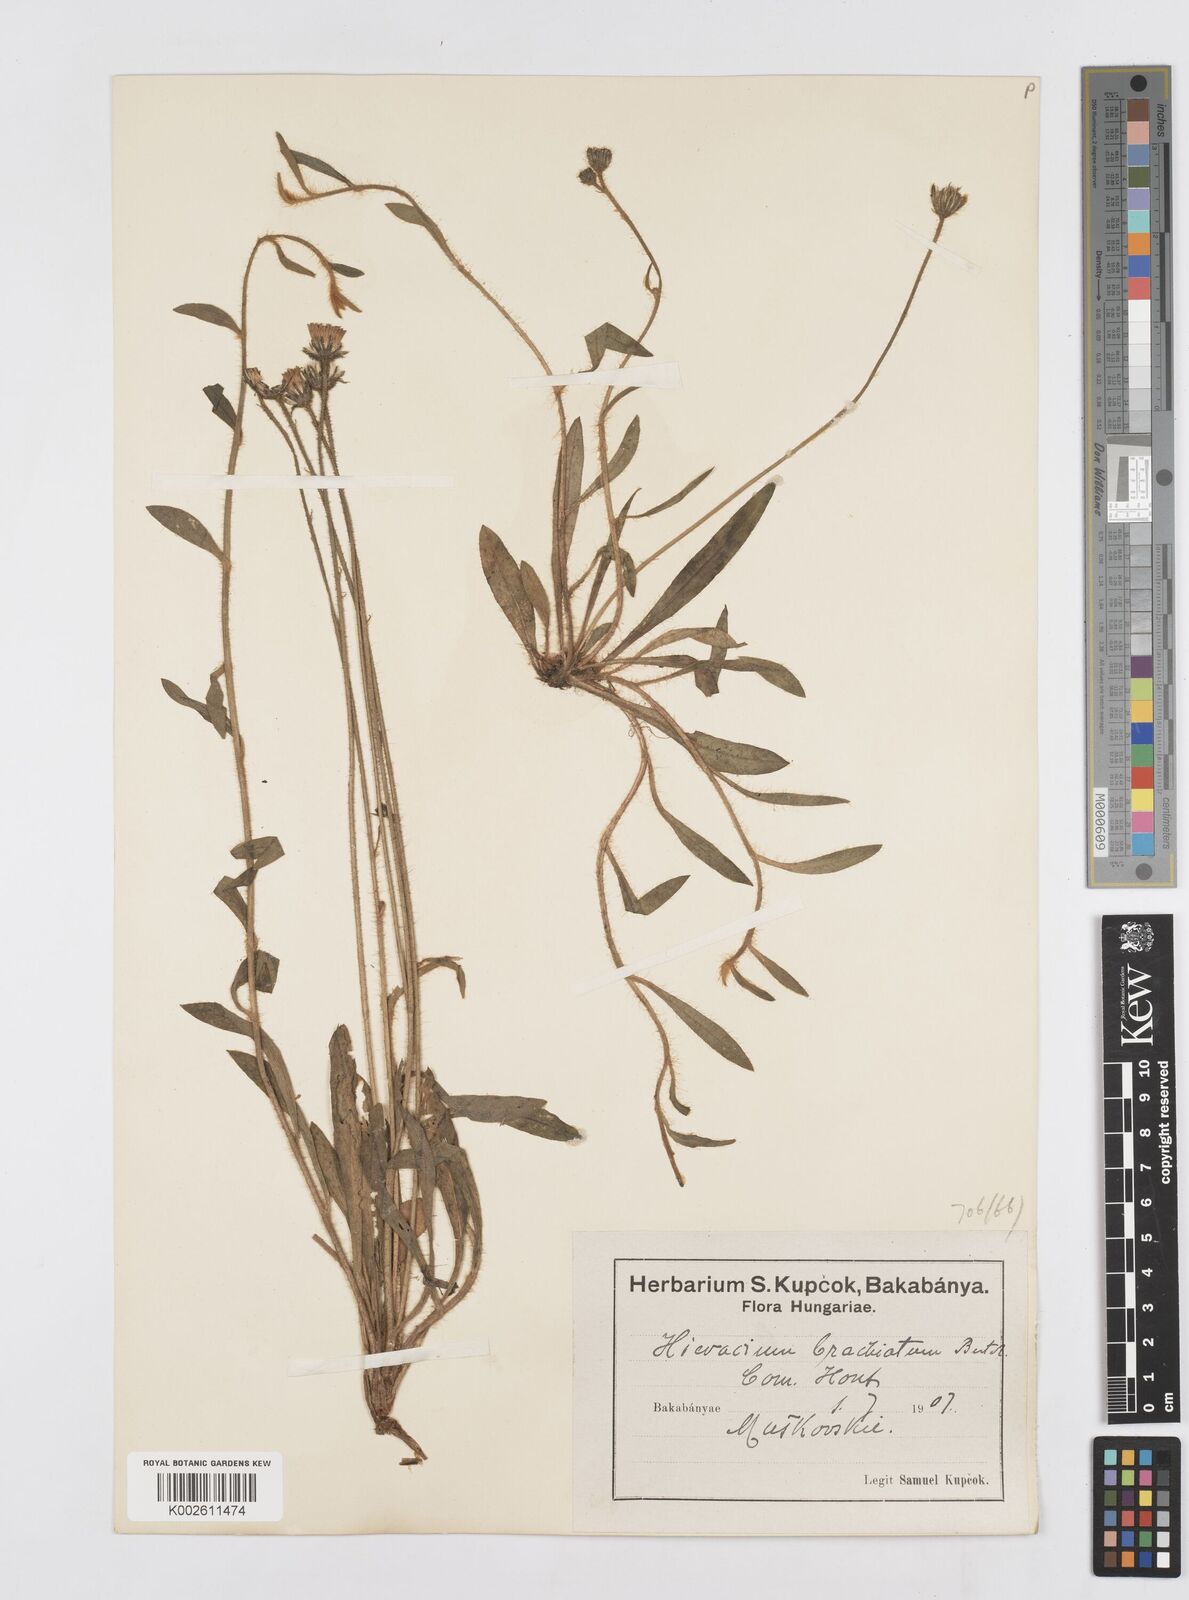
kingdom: Plantae
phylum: Tracheophyta
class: Magnoliopsida
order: Asterales
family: Asteraceae
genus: Pilosella
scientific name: Pilosella acutifolia
